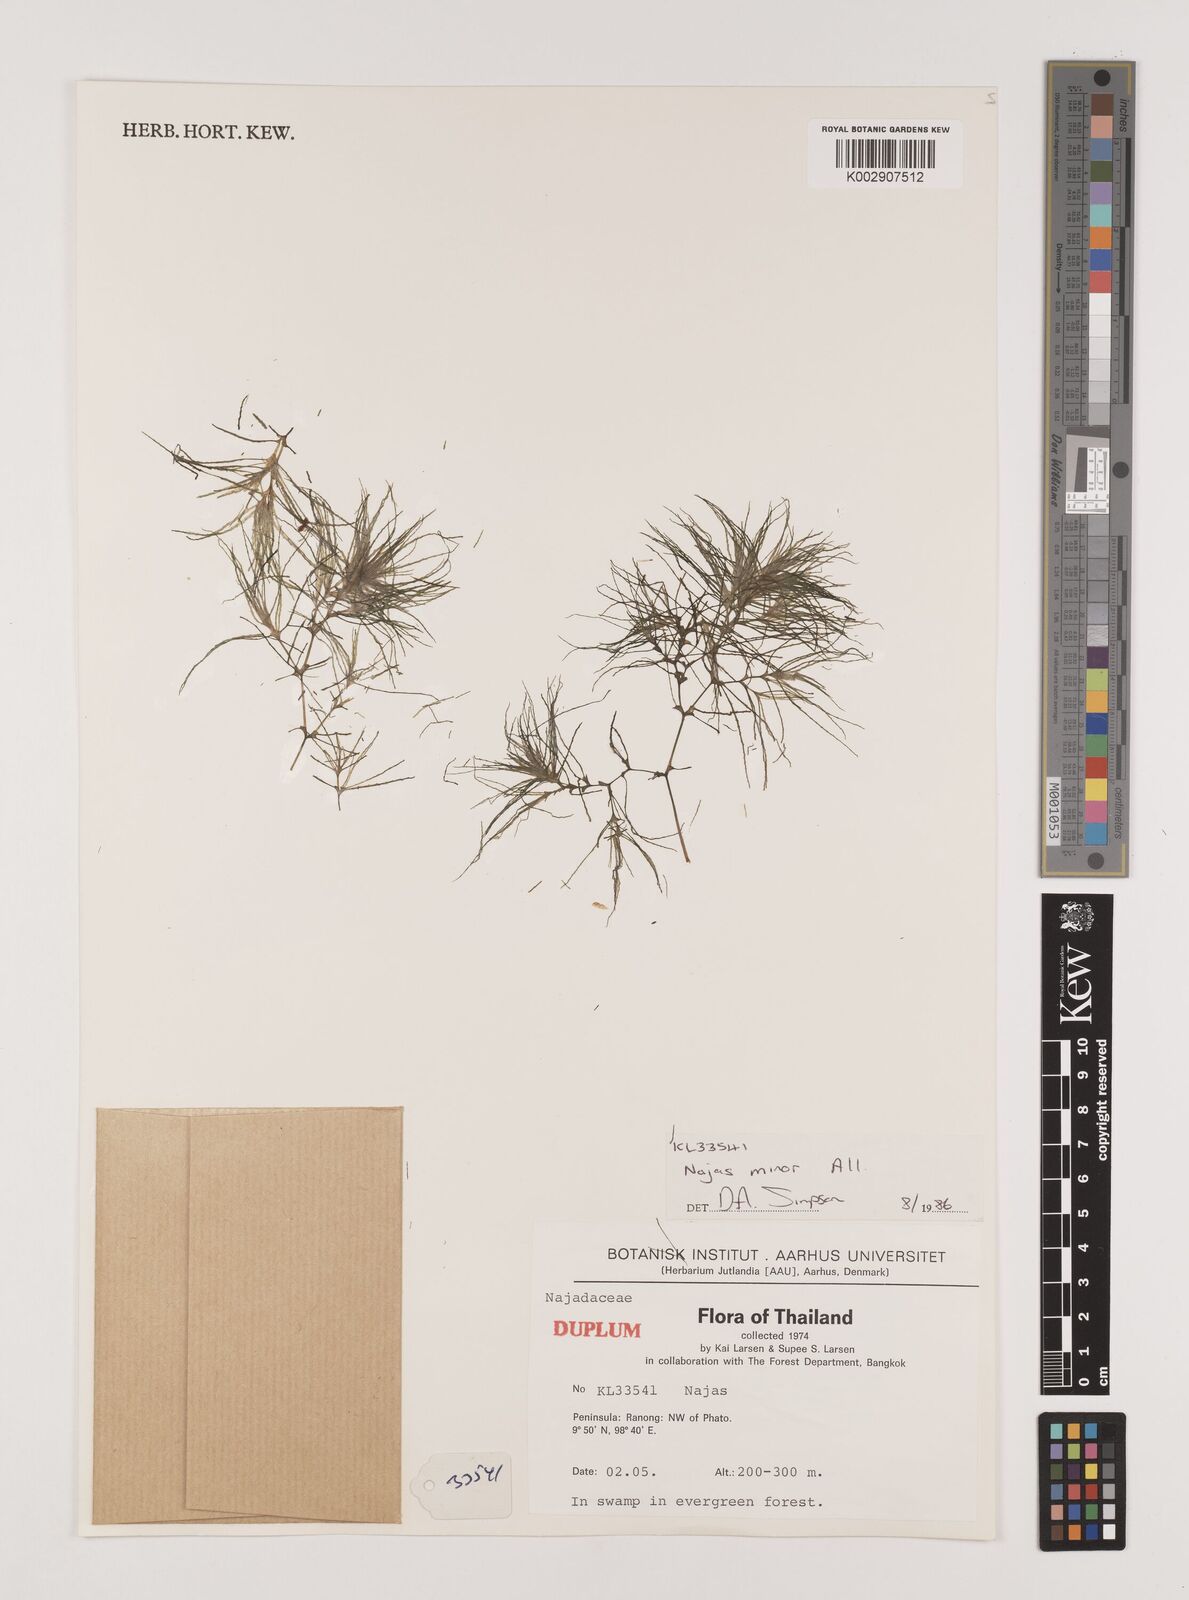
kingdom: Plantae
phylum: Tracheophyta
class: Liliopsida
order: Alismatales
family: Hydrocharitaceae
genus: Najas
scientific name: Najas minor
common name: Brittle naiad
